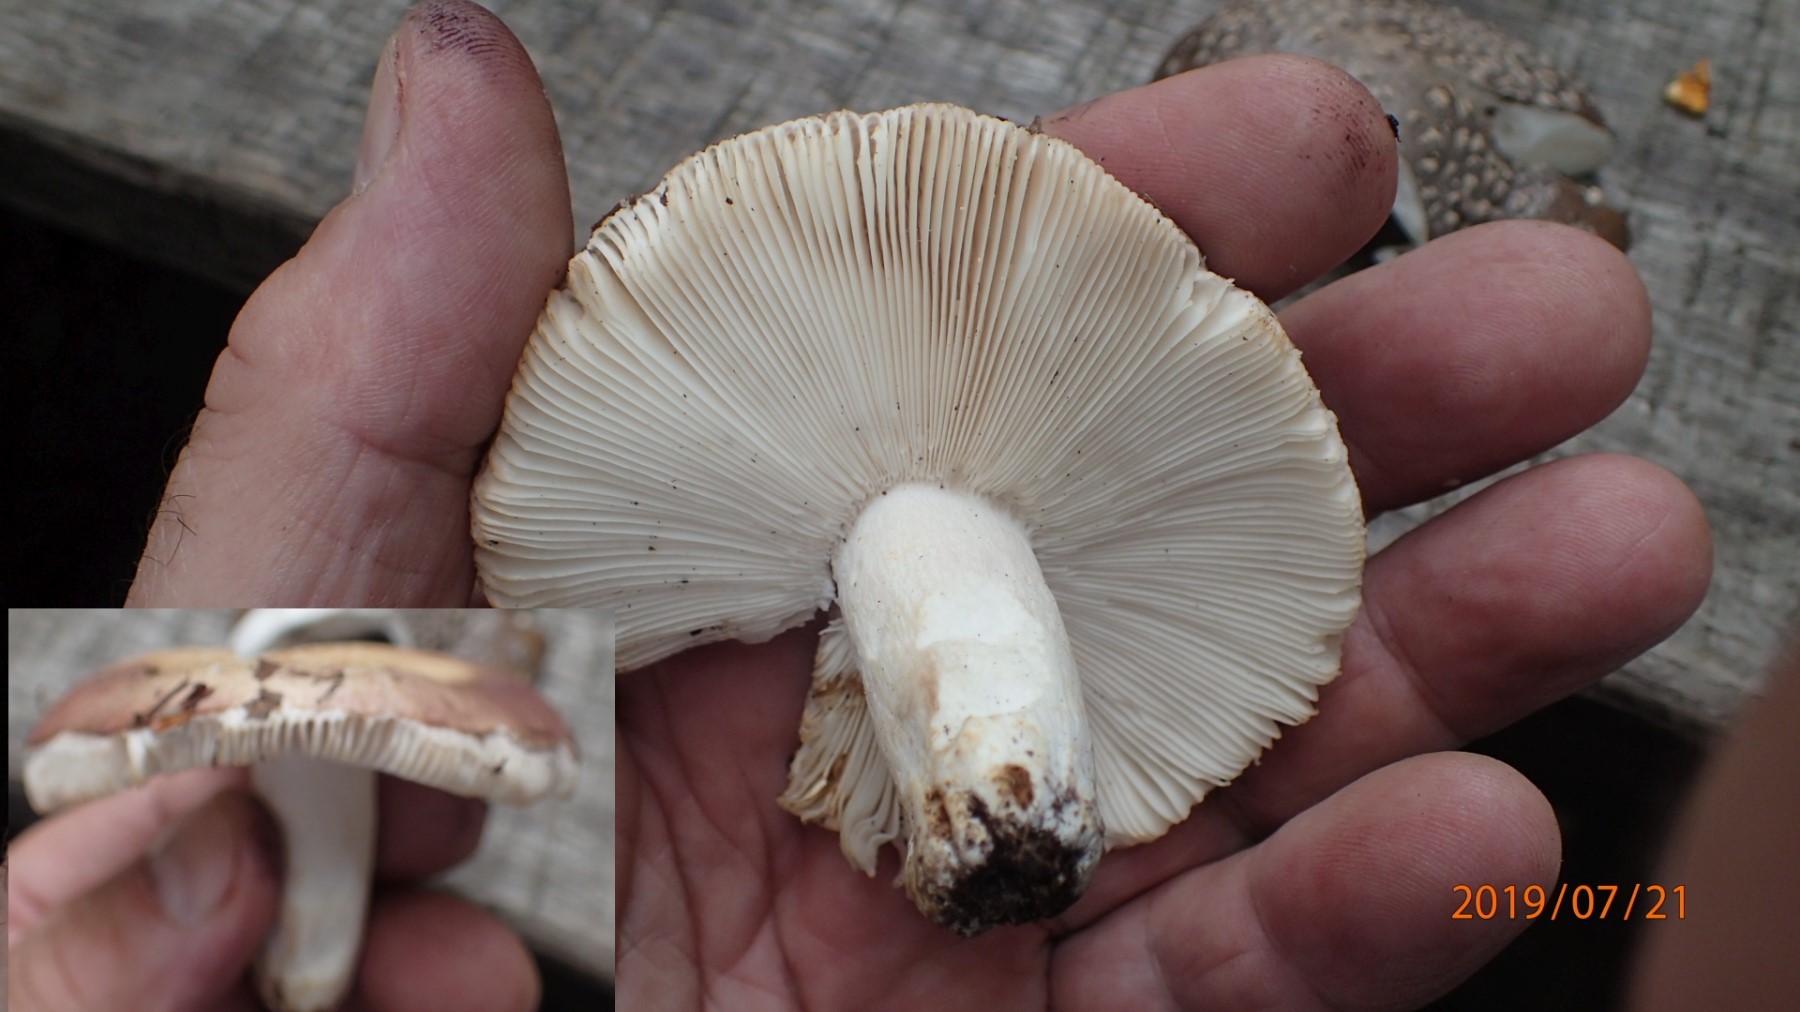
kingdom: Fungi
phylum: Basidiomycota
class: Agaricomycetes
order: Russulales
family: Russulaceae
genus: Russula
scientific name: Russula vesca
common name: spiselig skørhat
